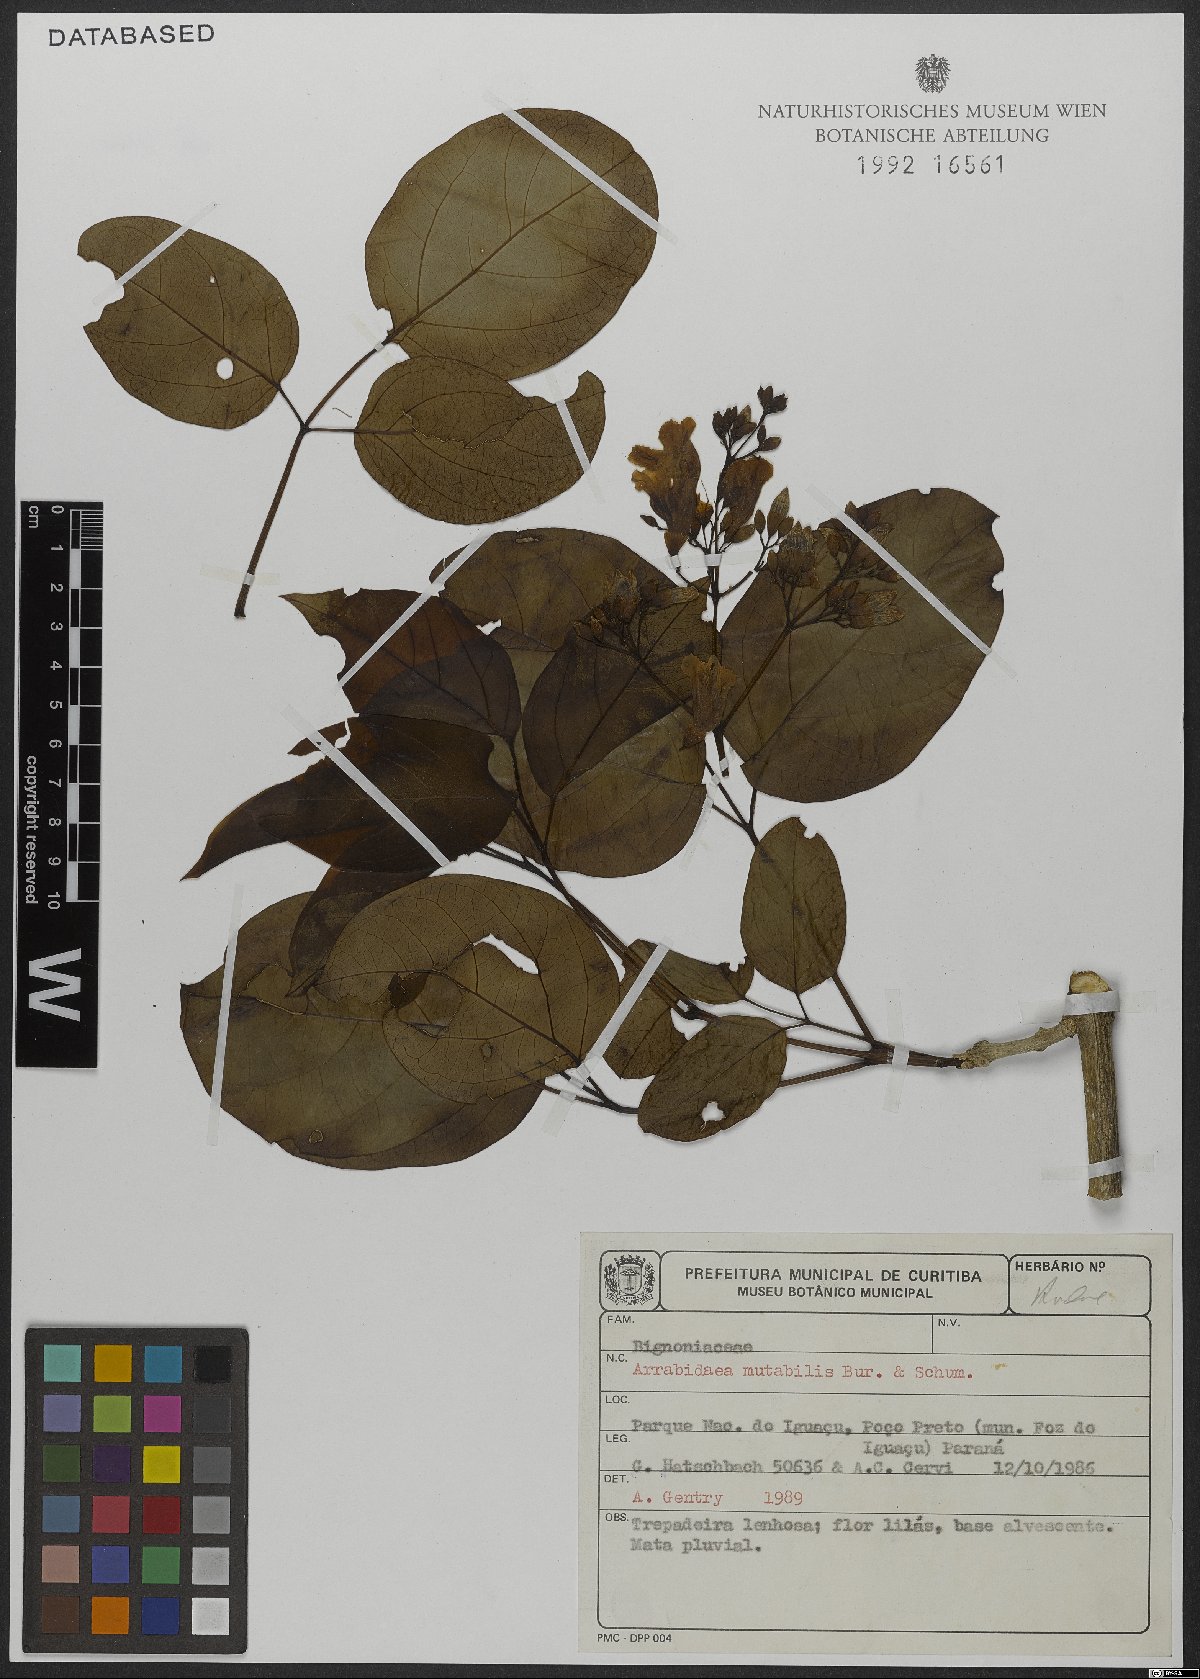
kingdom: Plantae
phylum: Tracheophyta
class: Magnoliopsida
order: Lamiales
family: Bignoniaceae
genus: Fridericia
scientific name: Fridericia mutabilis
